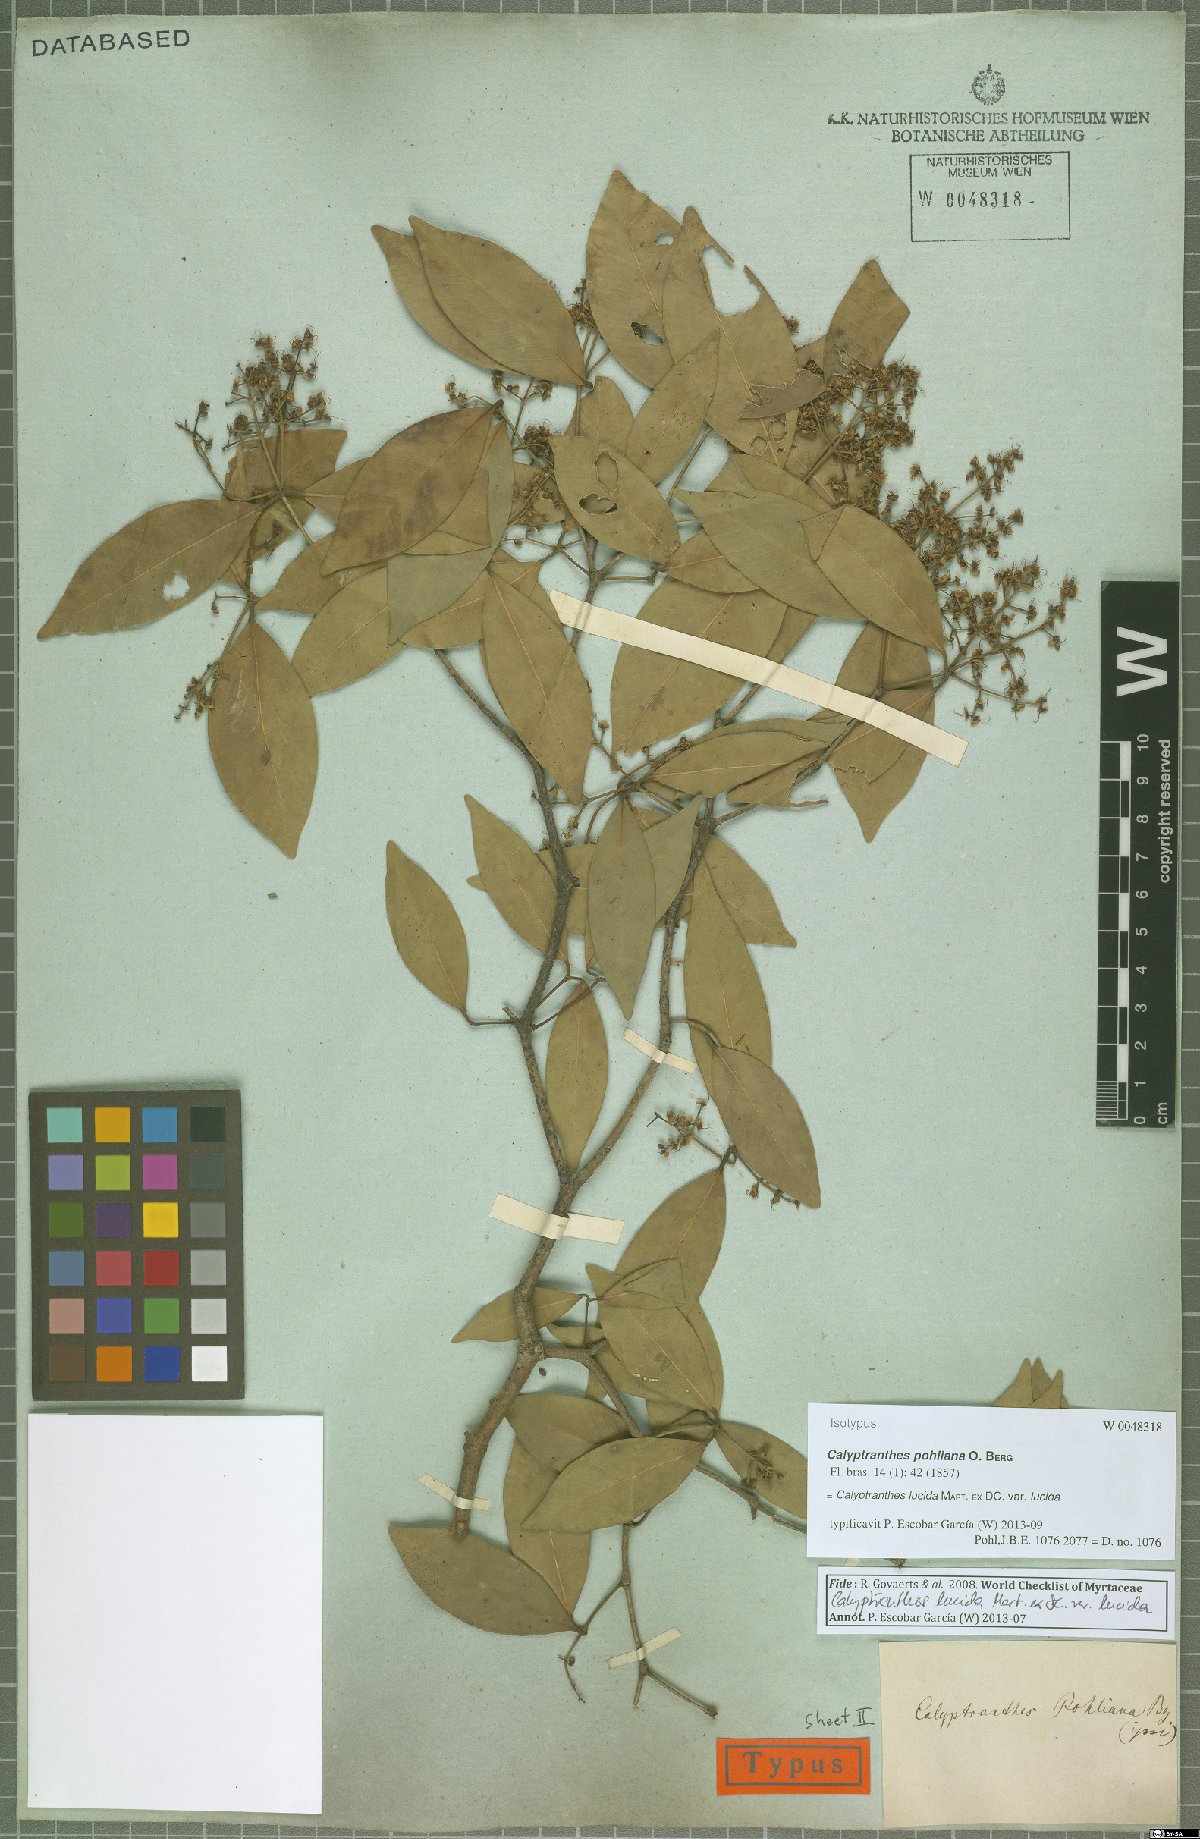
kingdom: Plantae
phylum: Tracheophyta
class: Magnoliopsida
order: Myrtales
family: Myrtaceae
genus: Myrcia
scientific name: Myrcia neolucida
